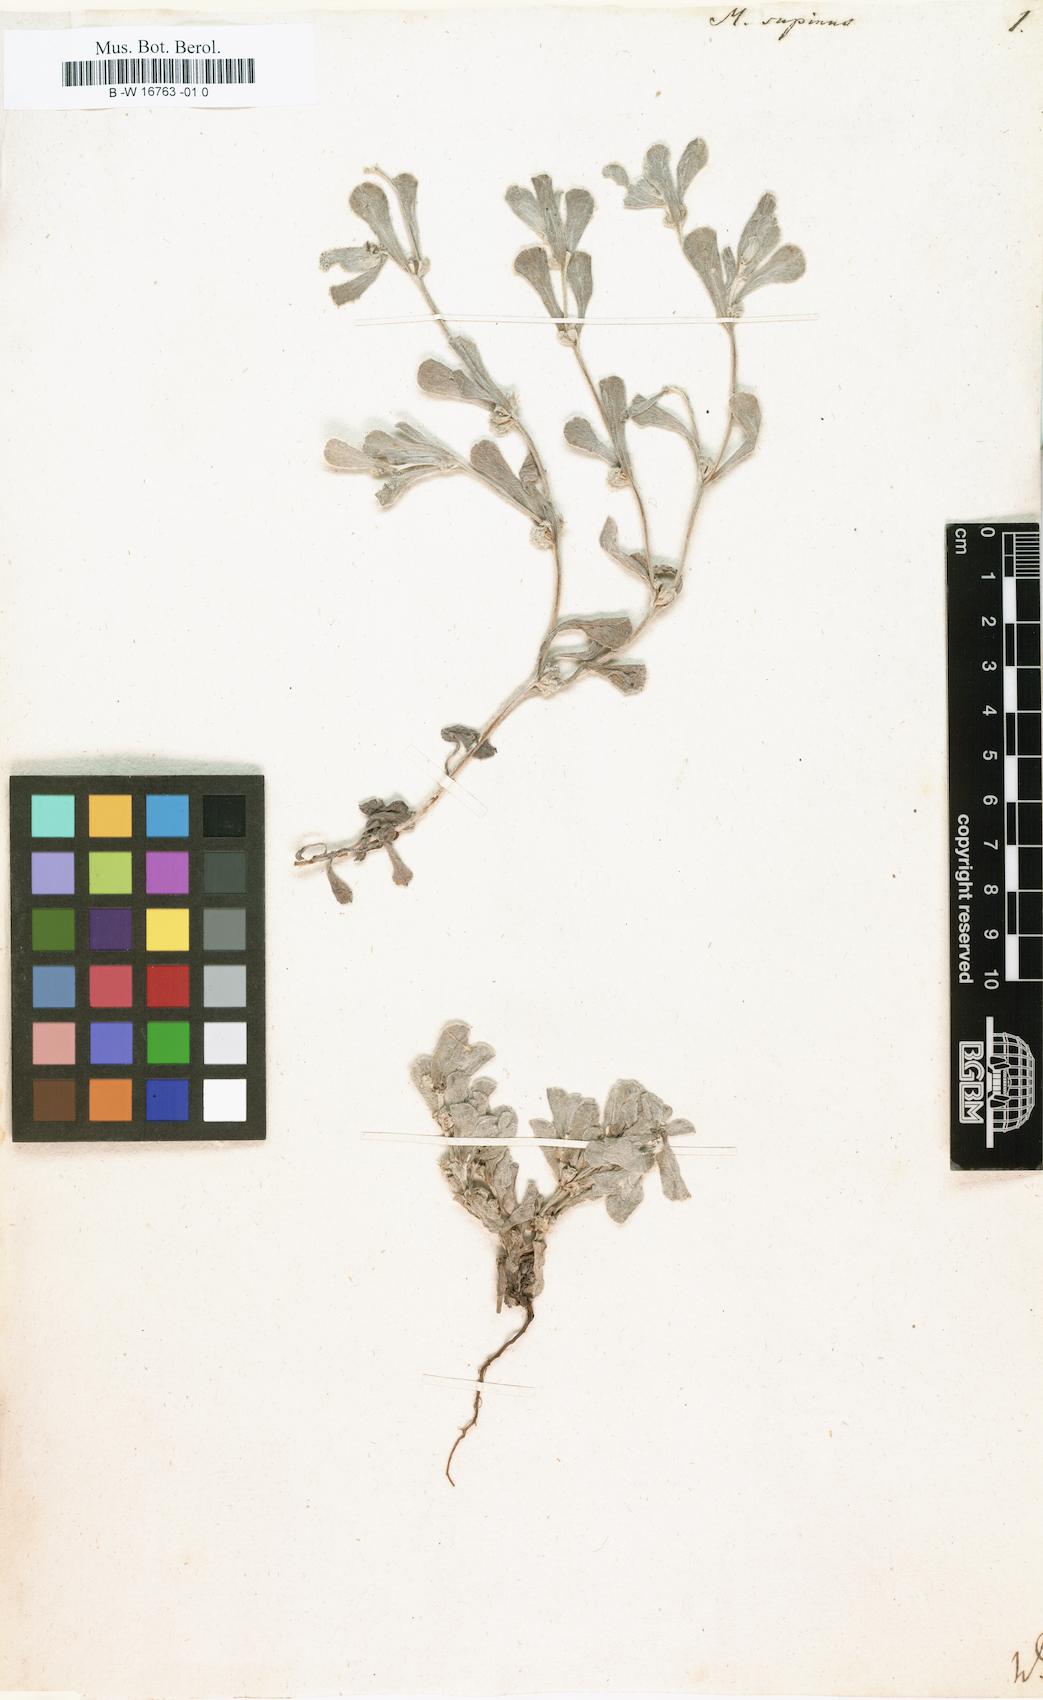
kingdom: Plantae
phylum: Tracheophyta
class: Magnoliopsida
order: Asterales
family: Asteraceae
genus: Micropus
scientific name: Micropus supinus
